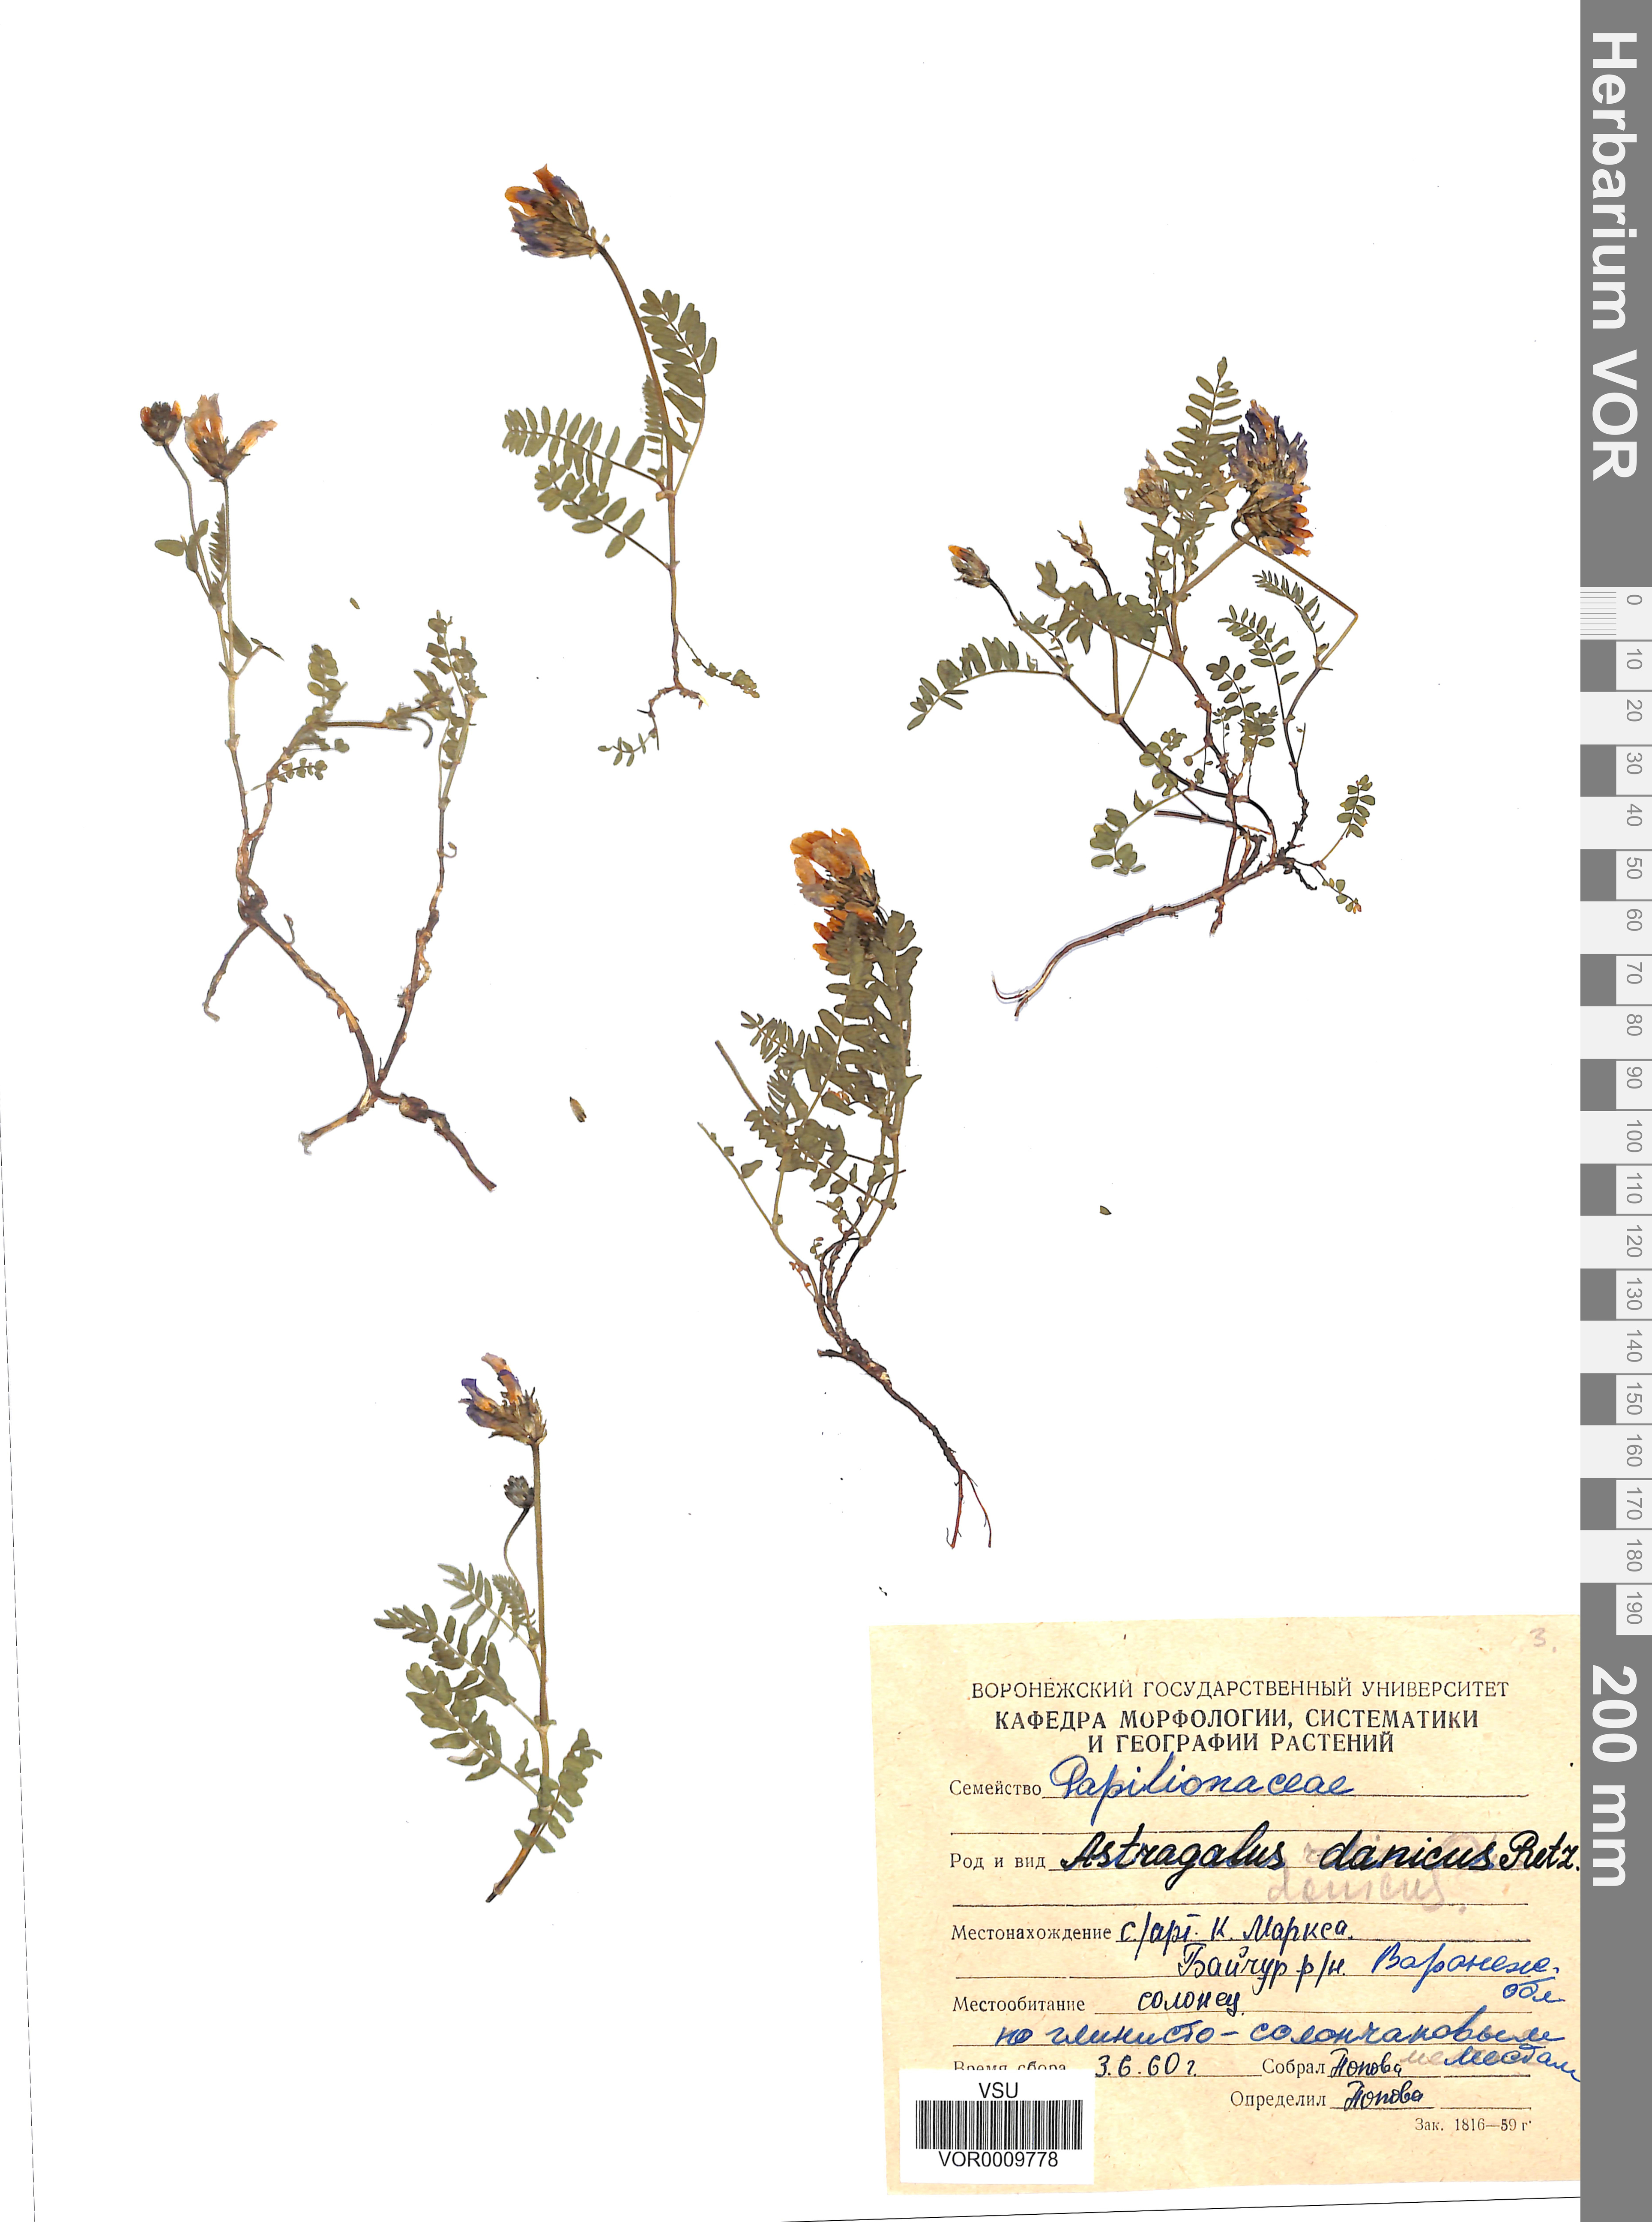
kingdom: Plantae
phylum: Tracheophyta
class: Magnoliopsida
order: Fabales
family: Fabaceae
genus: Astragalus
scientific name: Astragalus danicus
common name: Purple milk-vetch
